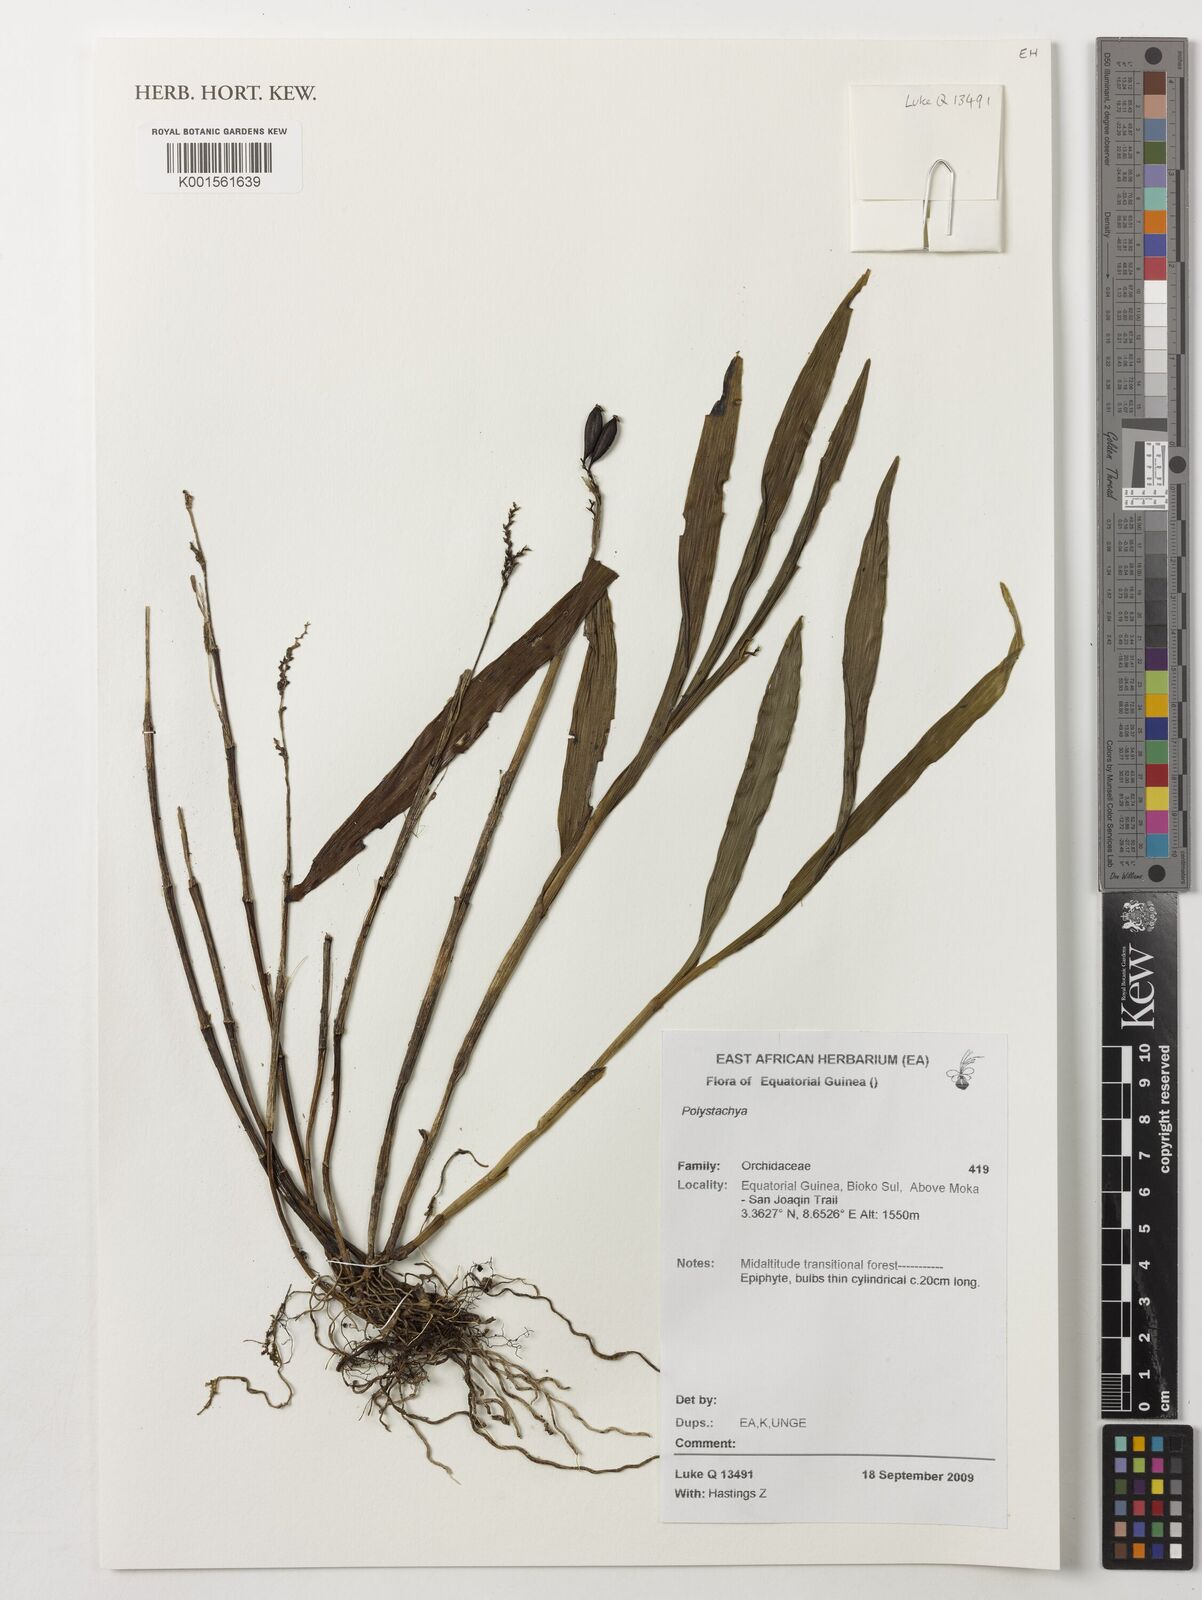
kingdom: Plantae
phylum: Tracheophyta
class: Liliopsida
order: Asparagales
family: Orchidaceae
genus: Polystachya
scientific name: Polystachya
